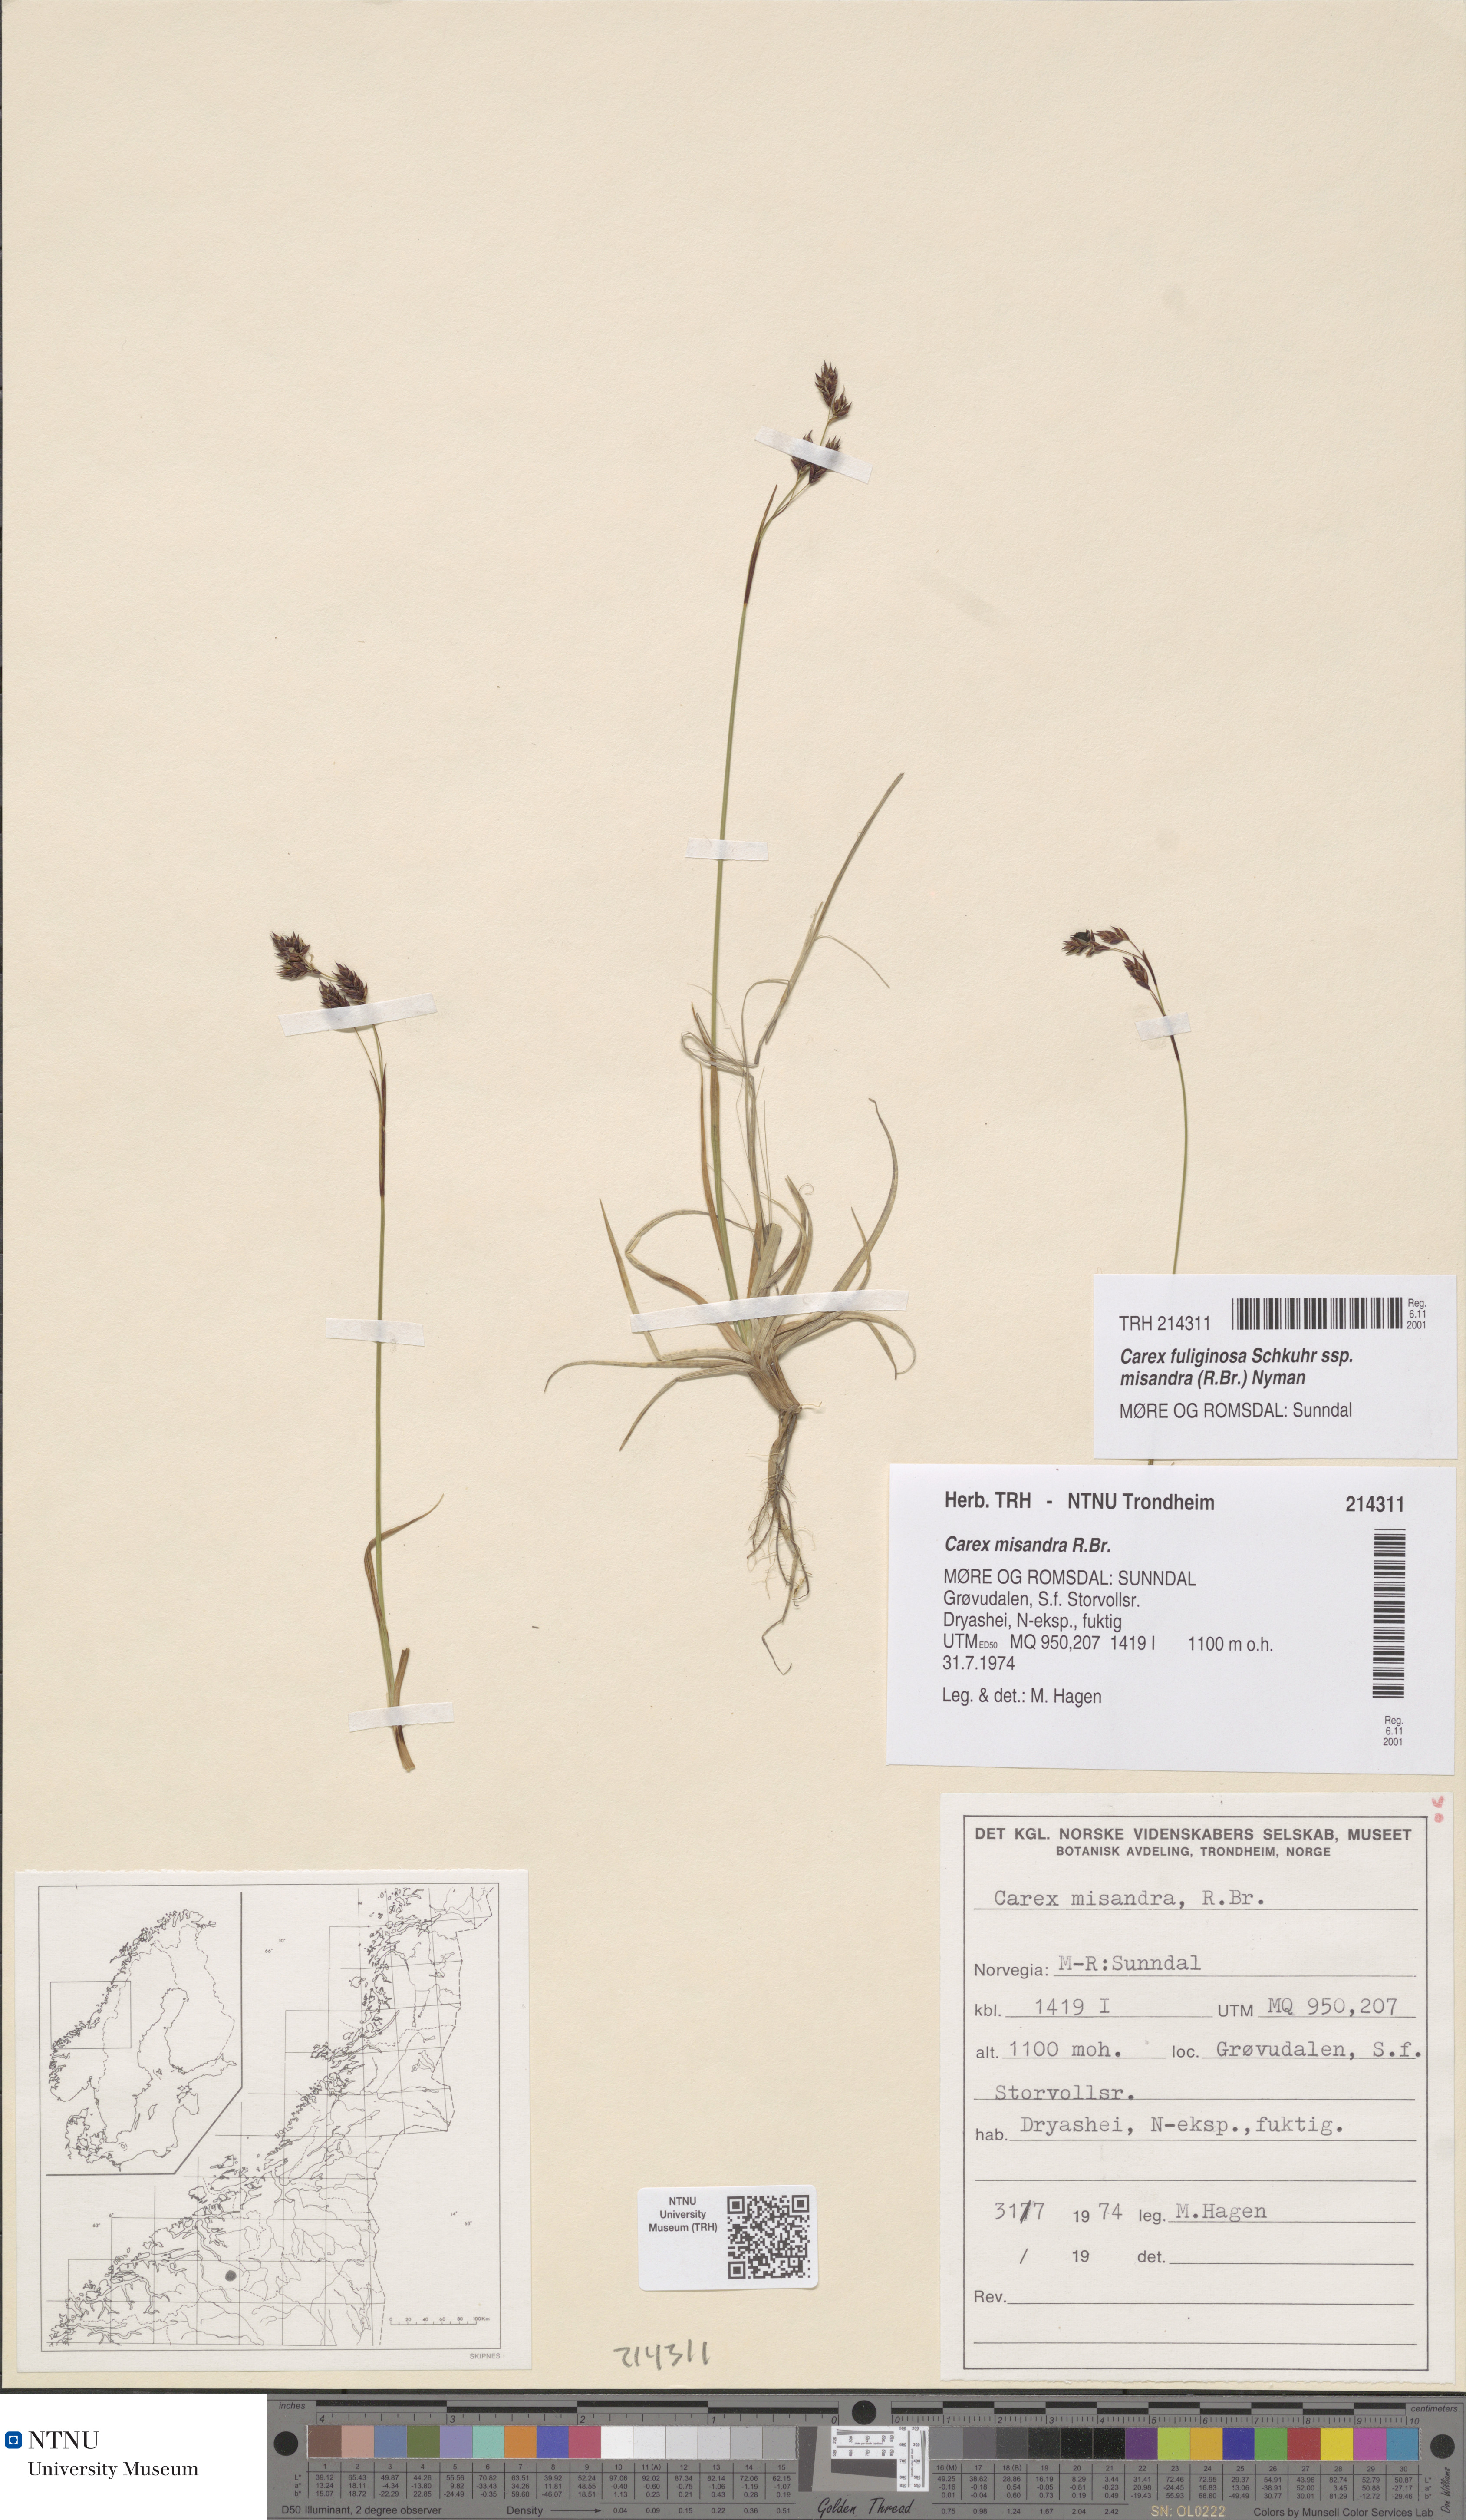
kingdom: Plantae
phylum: Tracheophyta
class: Liliopsida
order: Poales
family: Cyperaceae
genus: Carex
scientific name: Carex fuliginosa
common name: Few-flowered sedge
